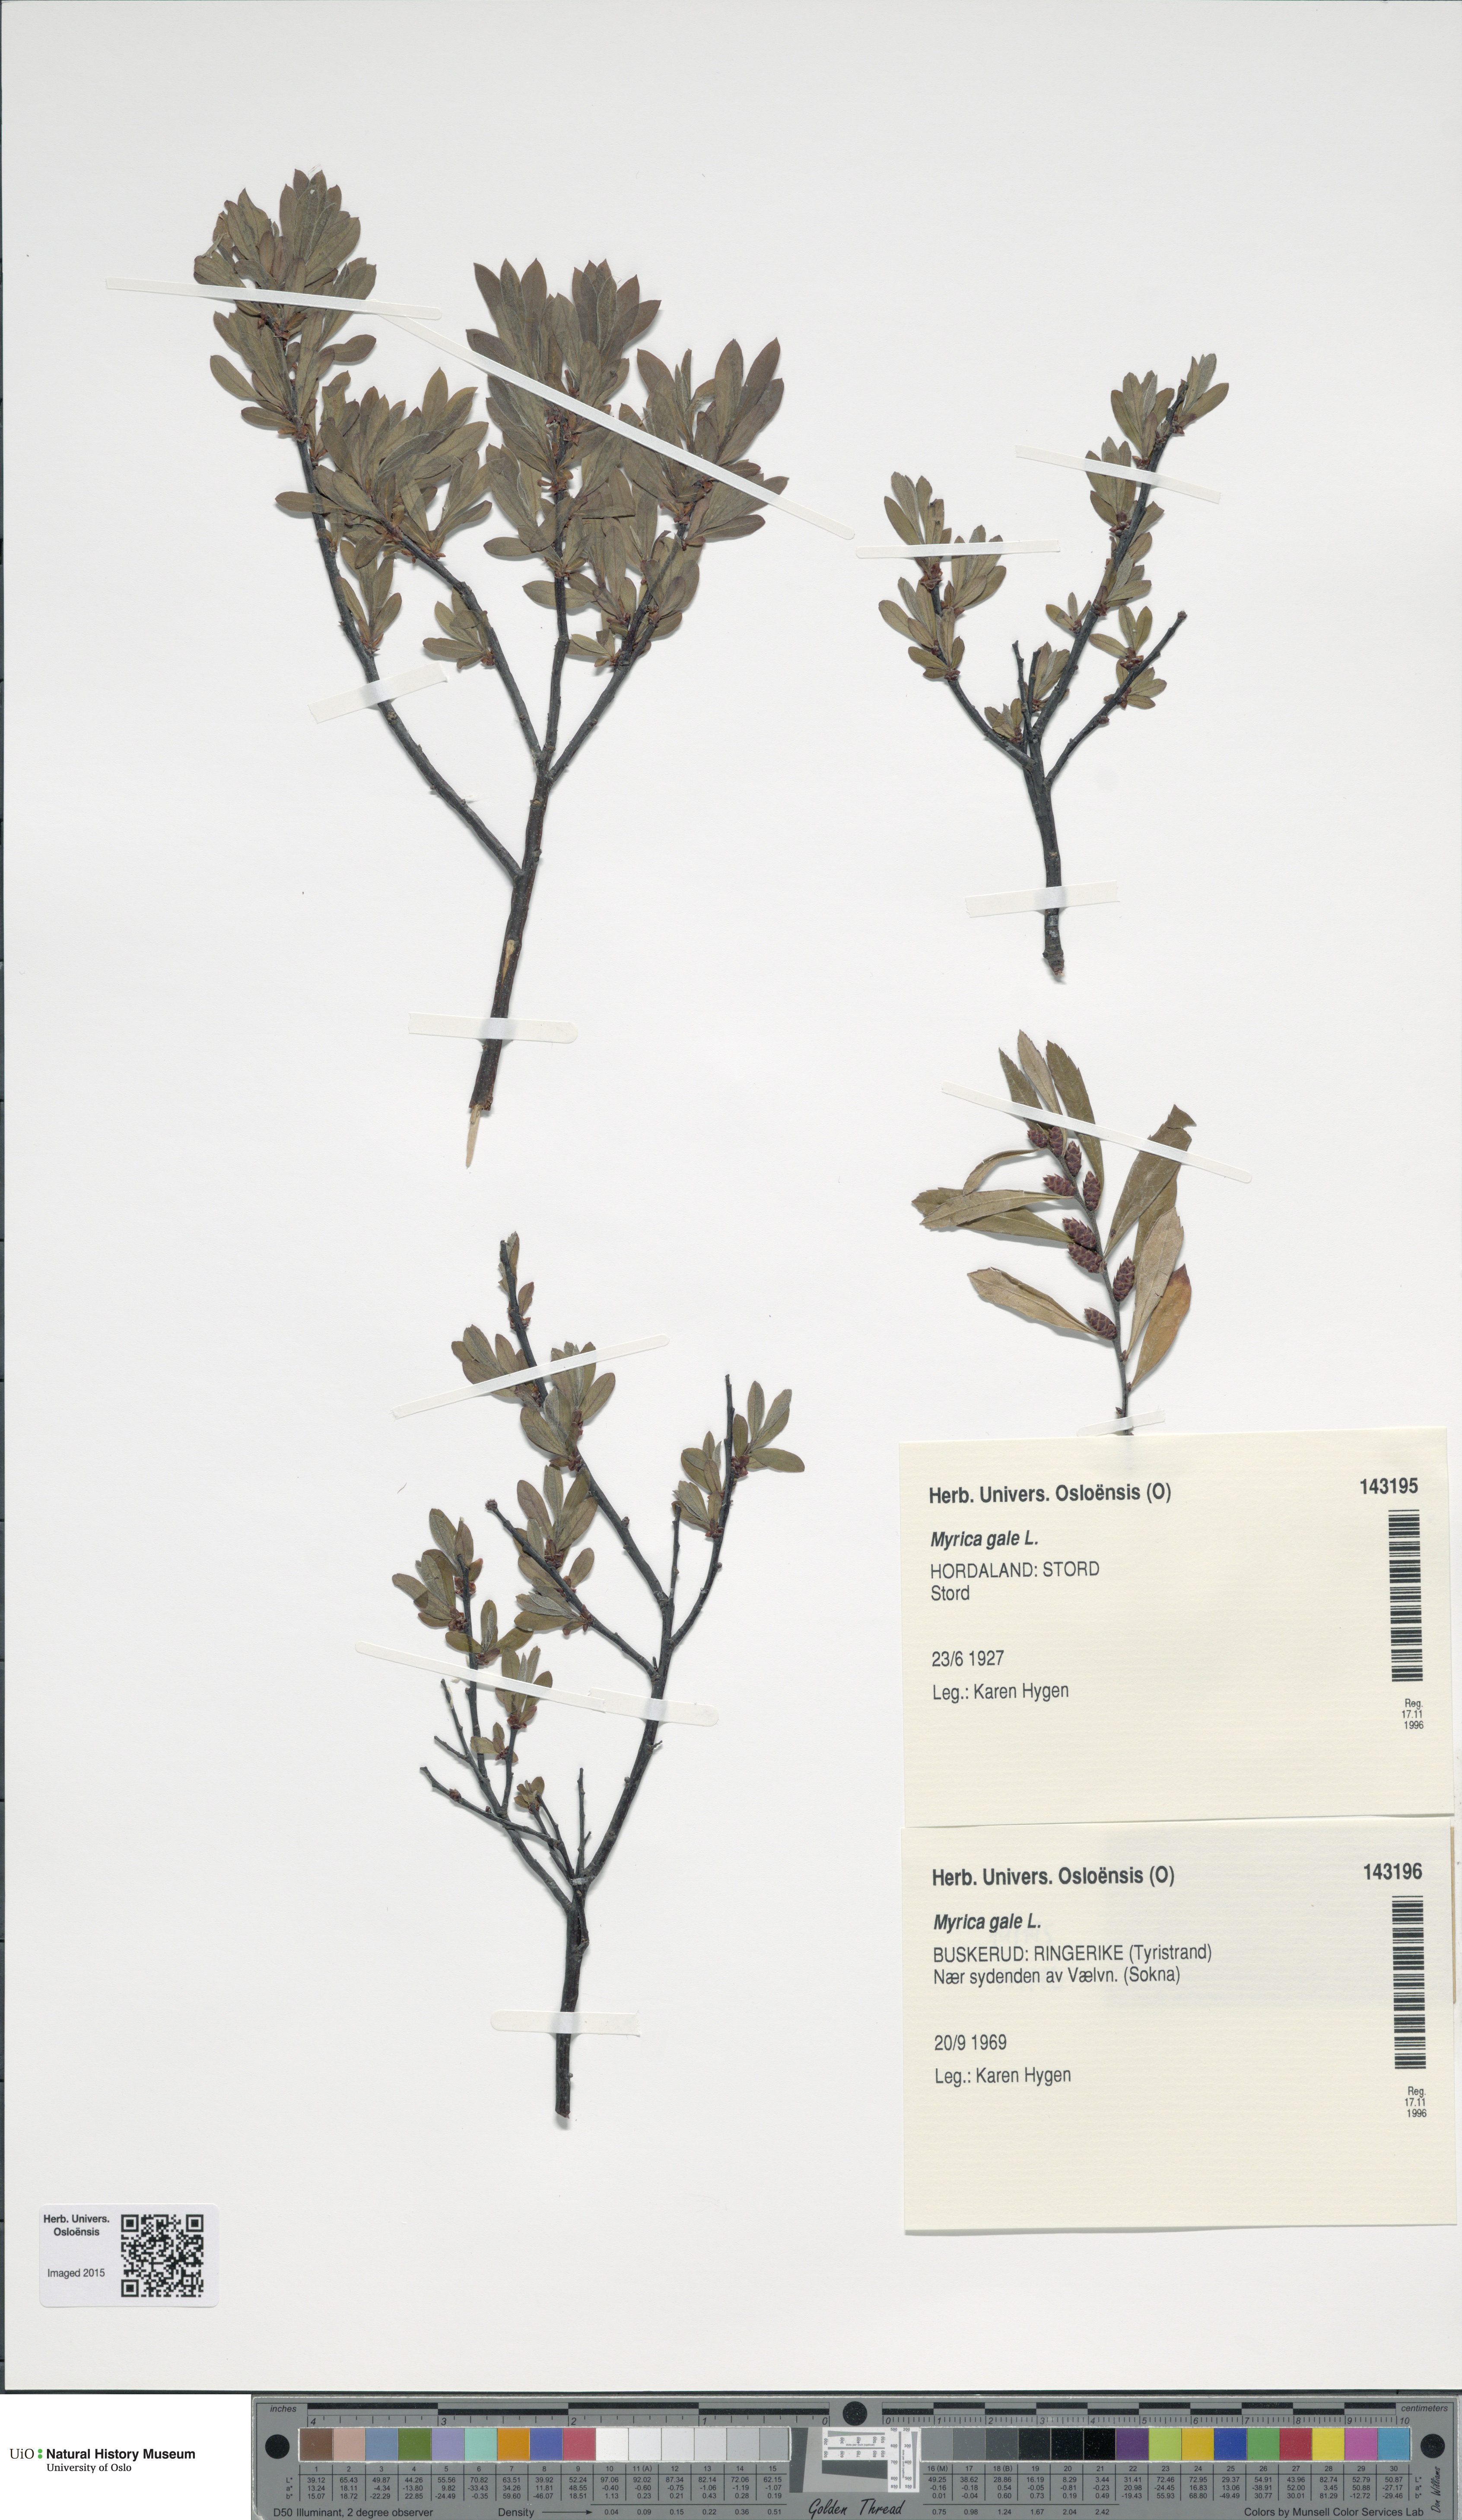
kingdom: Plantae
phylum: Tracheophyta
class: Magnoliopsida
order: Fagales
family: Myricaceae
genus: Myrica
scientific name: Myrica gale
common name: Sweet gale
